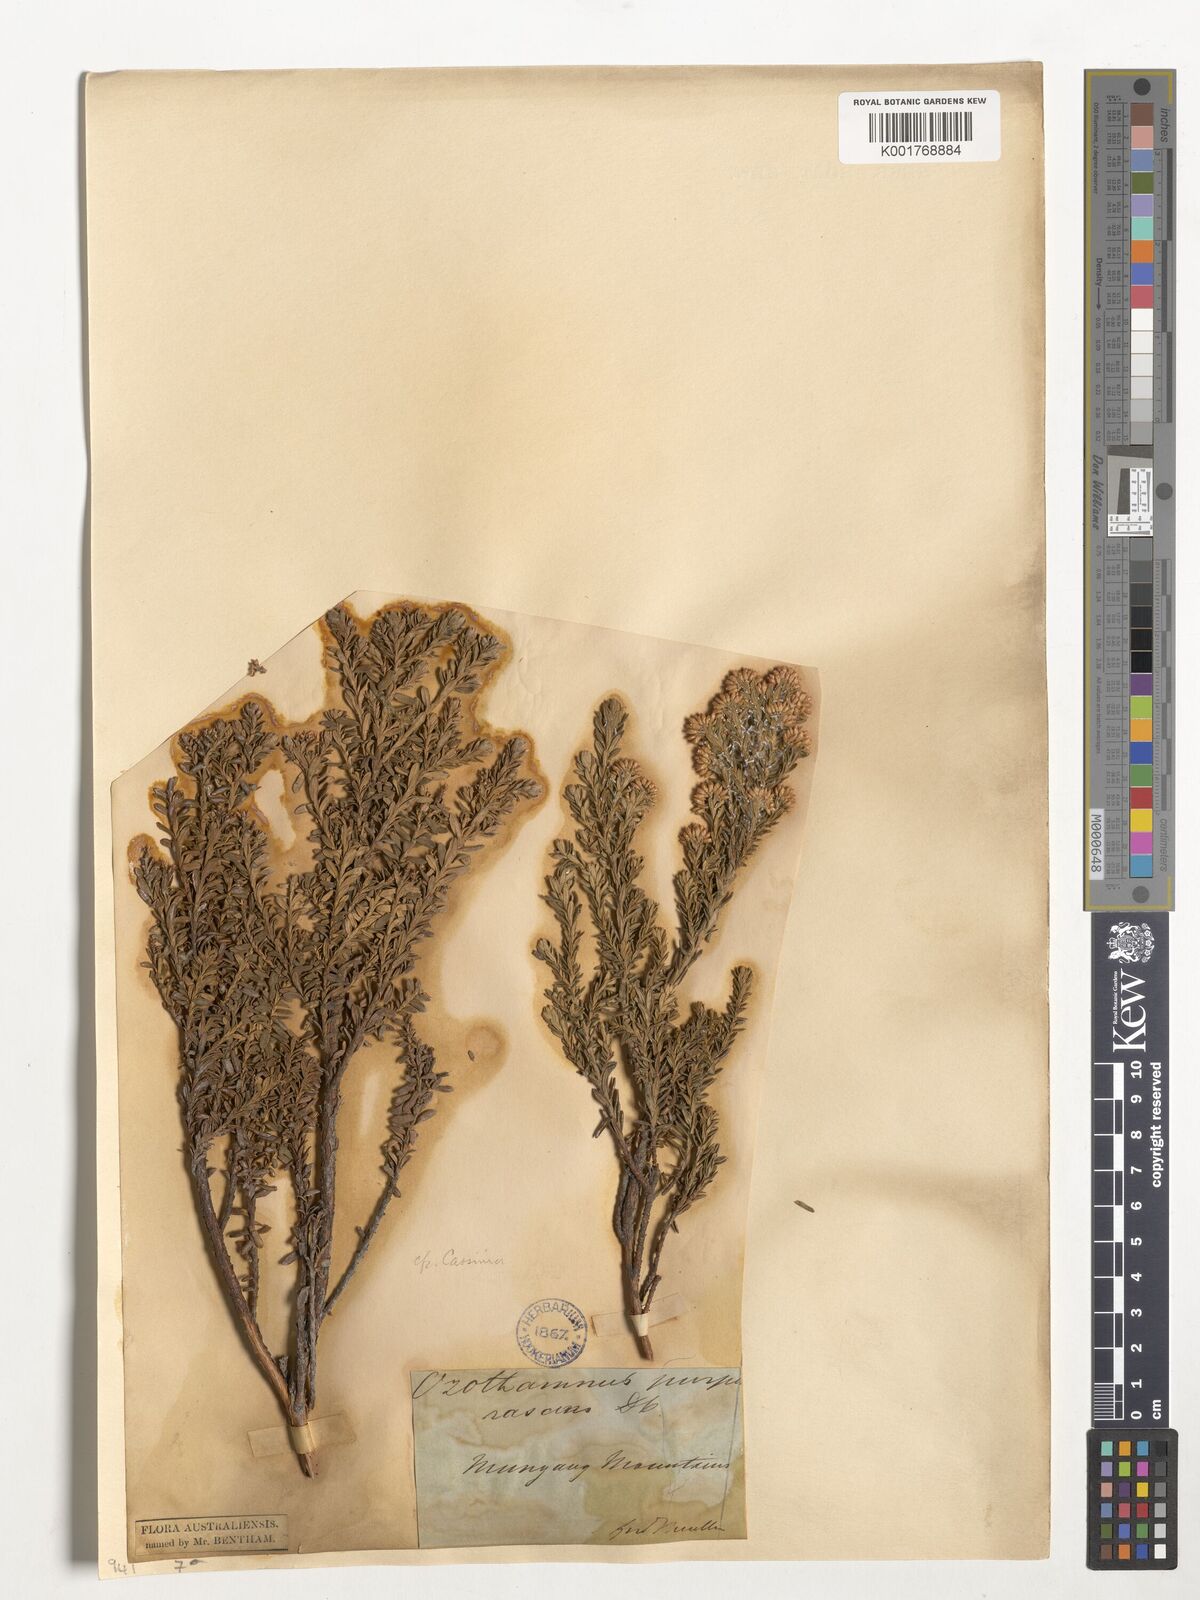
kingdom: Plantae
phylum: Tracheophyta
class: Magnoliopsida
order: Asterales
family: Asteraceae
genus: Ozothamnus
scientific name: Ozothamnus purpurascens
